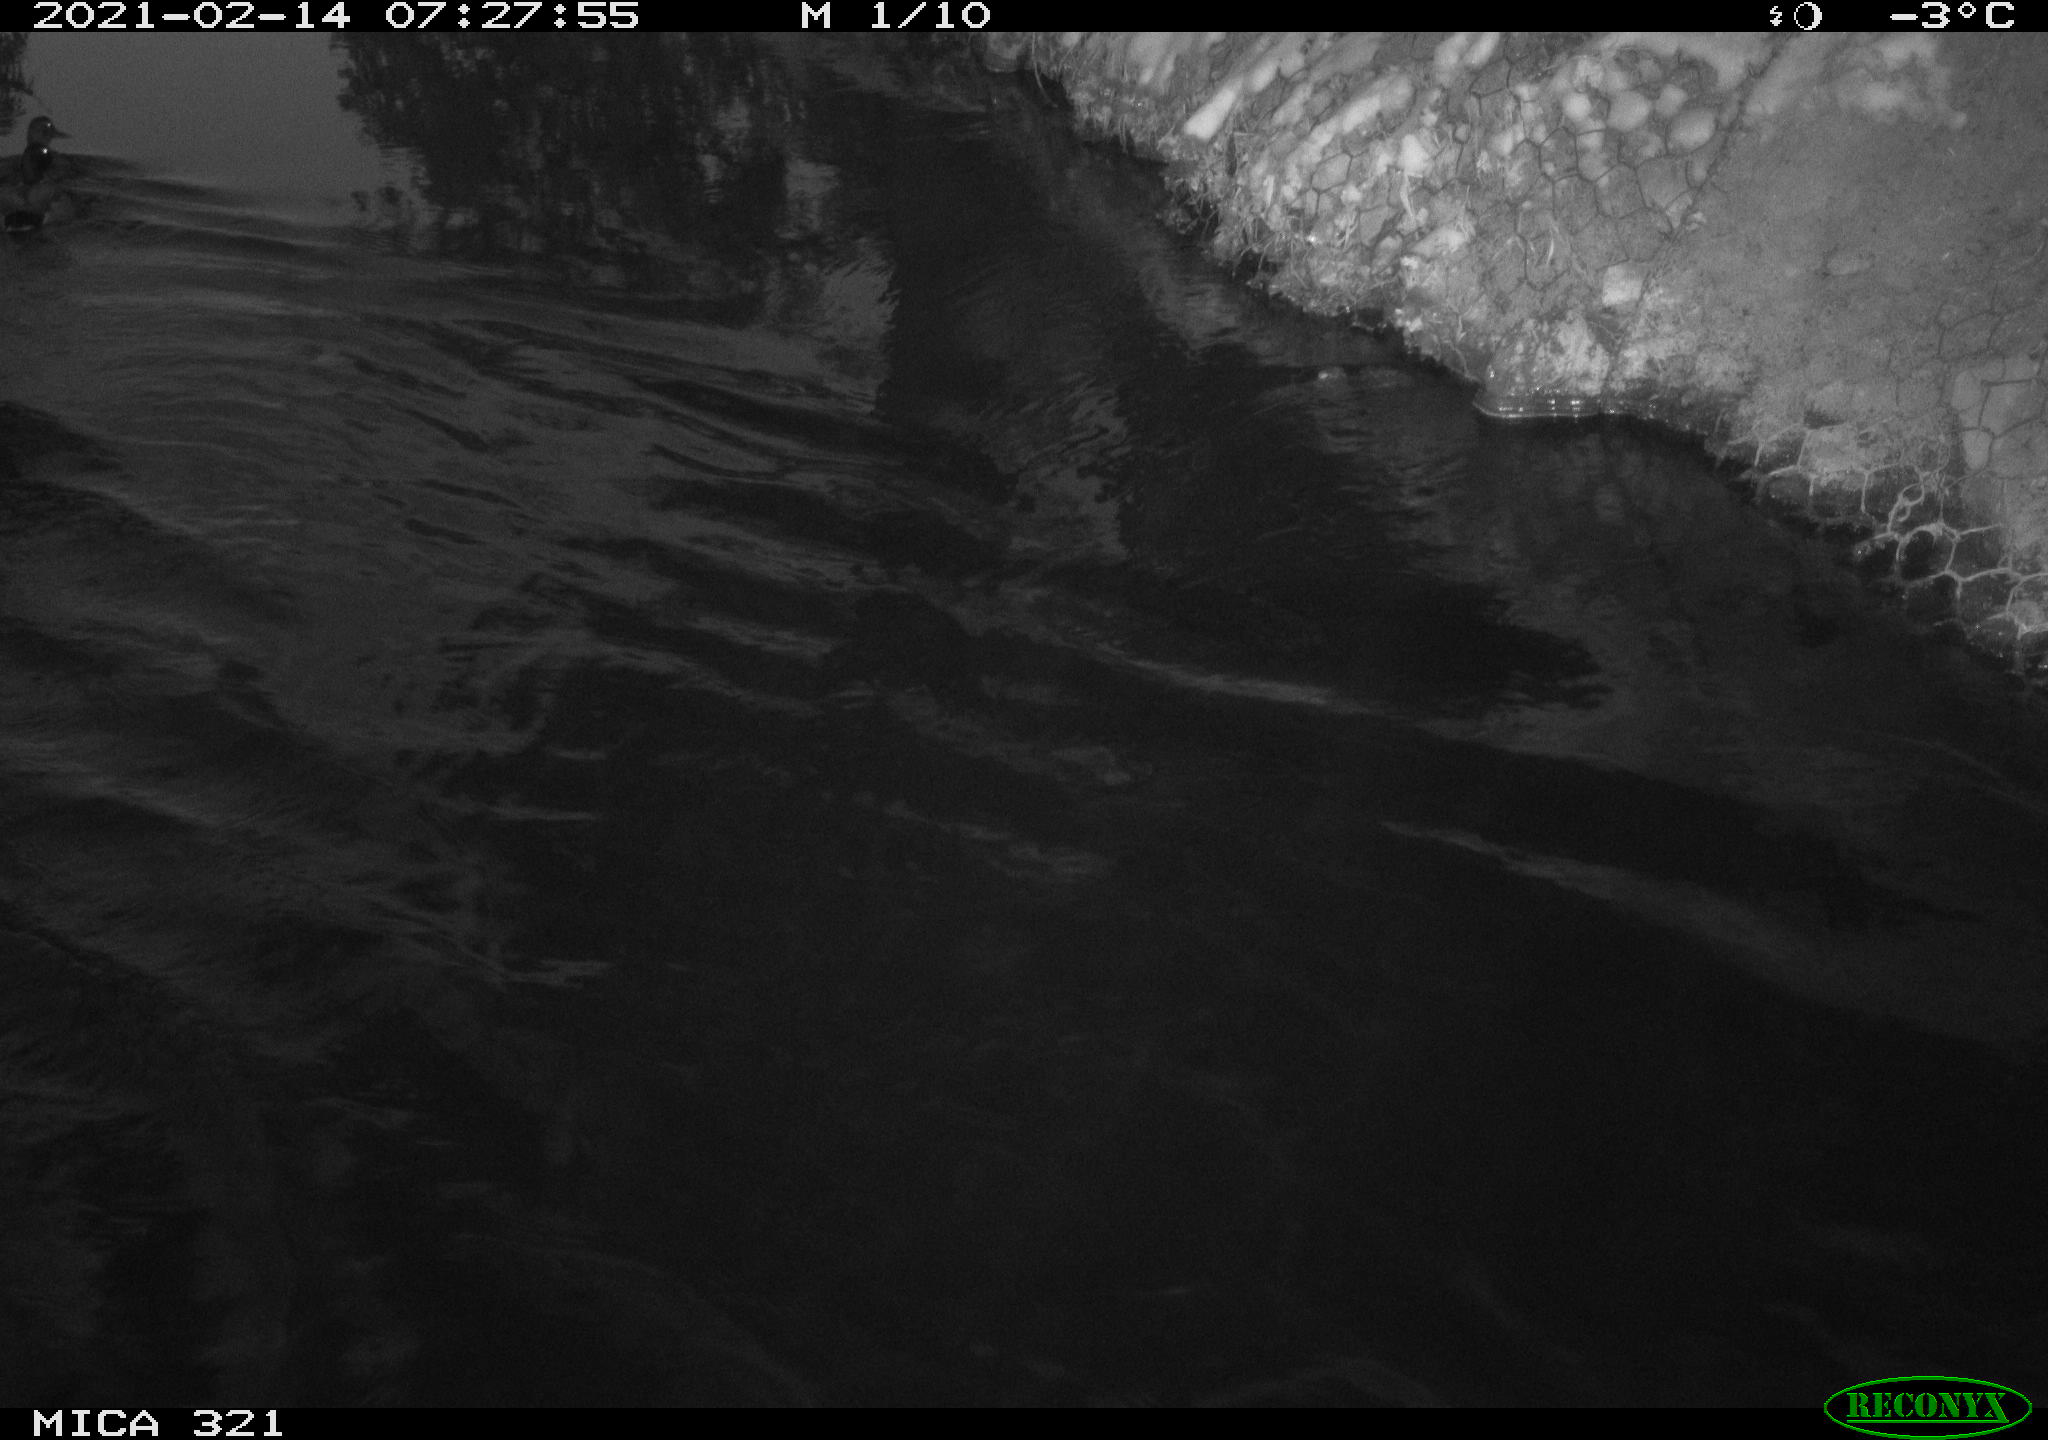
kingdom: Animalia
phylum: Chordata
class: Aves
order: Anseriformes
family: Anatidae
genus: Anas
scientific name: Anas platyrhynchos
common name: Mallard
